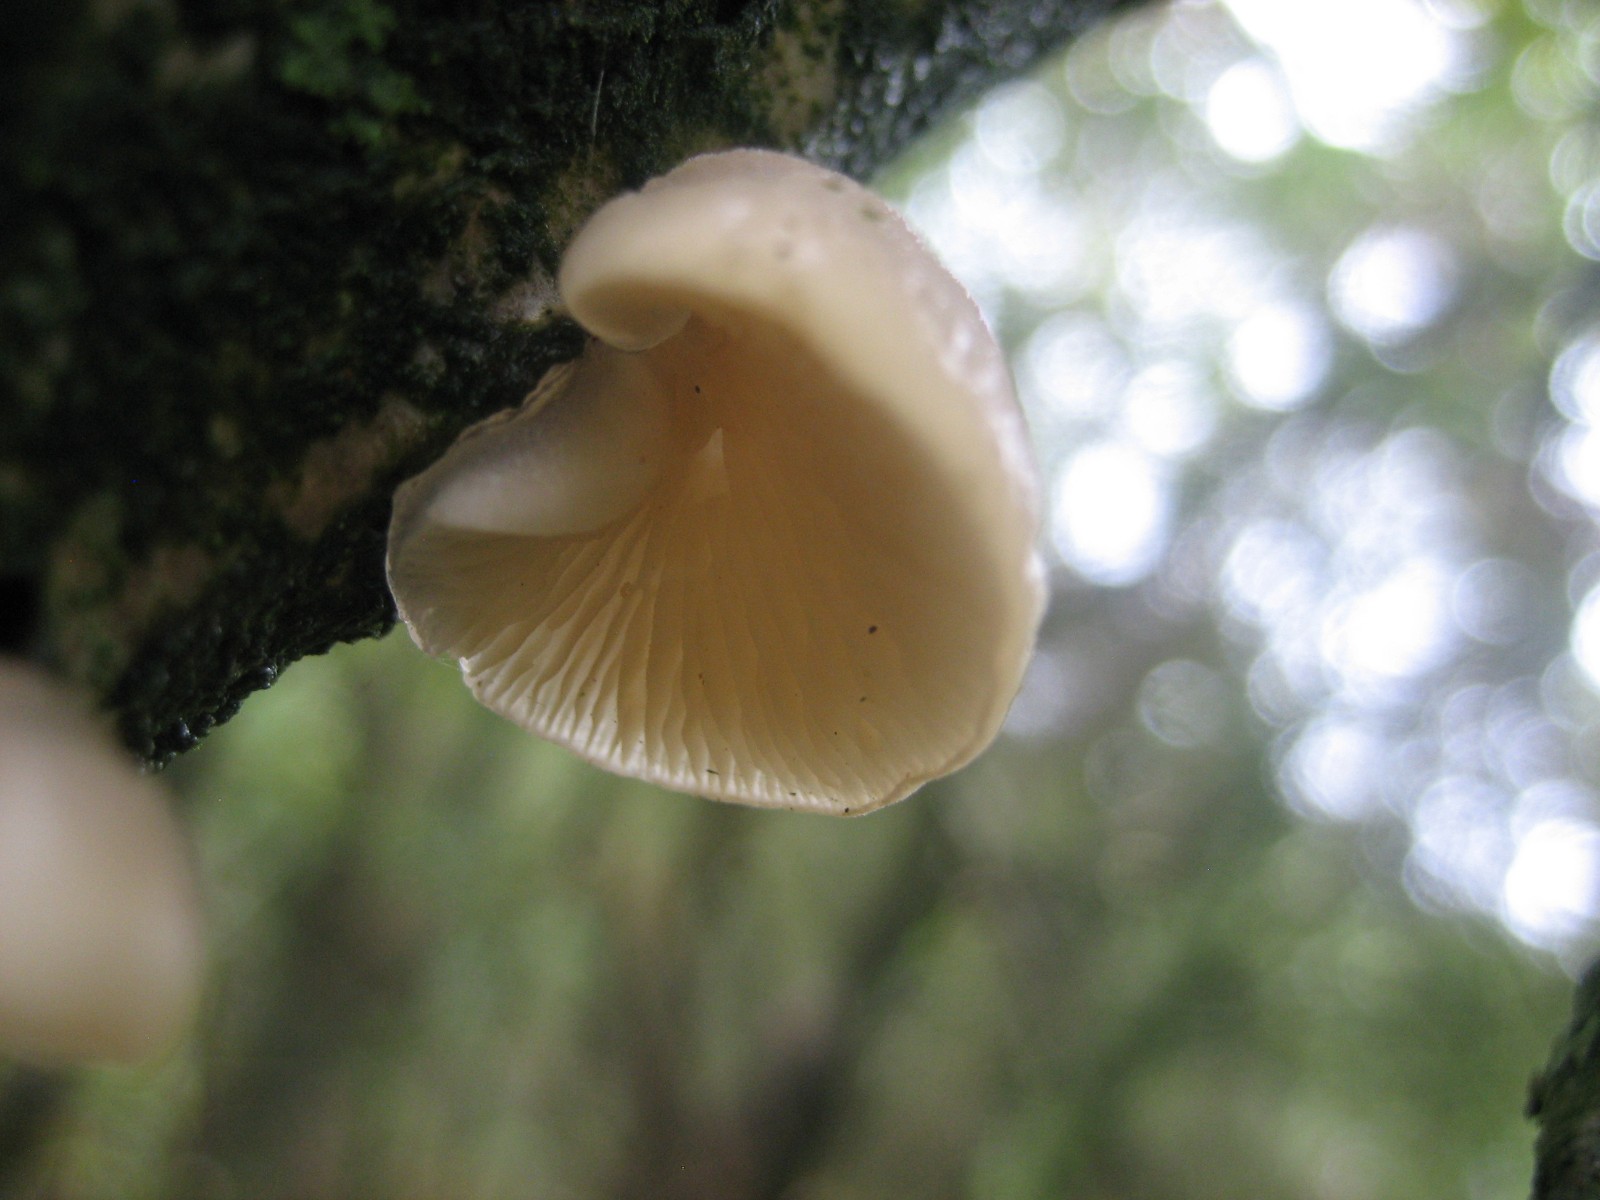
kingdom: Fungi
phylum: Basidiomycota
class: Agaricomycetes
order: Agaricales
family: Pleurotaceae
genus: Hohenbuehelia
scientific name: Hohenbuehelia
